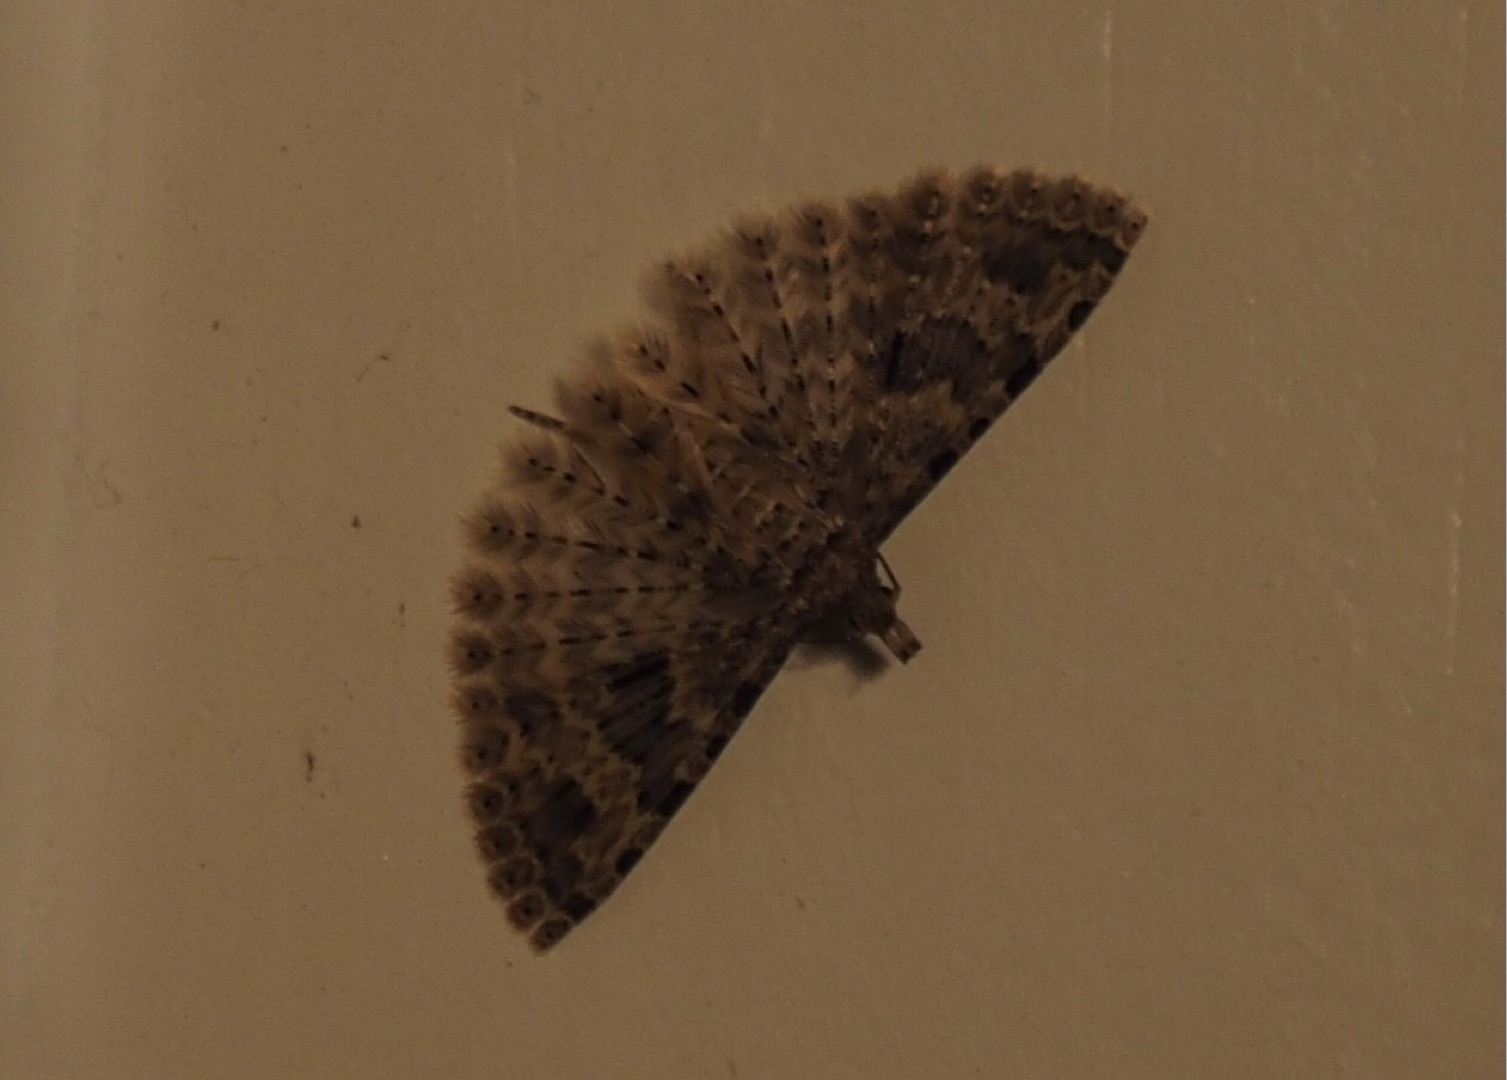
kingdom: Animalia
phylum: Arthropoda
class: Insecta
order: Lepidoptera
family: Alucitidae
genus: Alucita
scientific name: Alucita hexadactyla
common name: Kaprifoliefjermøl
